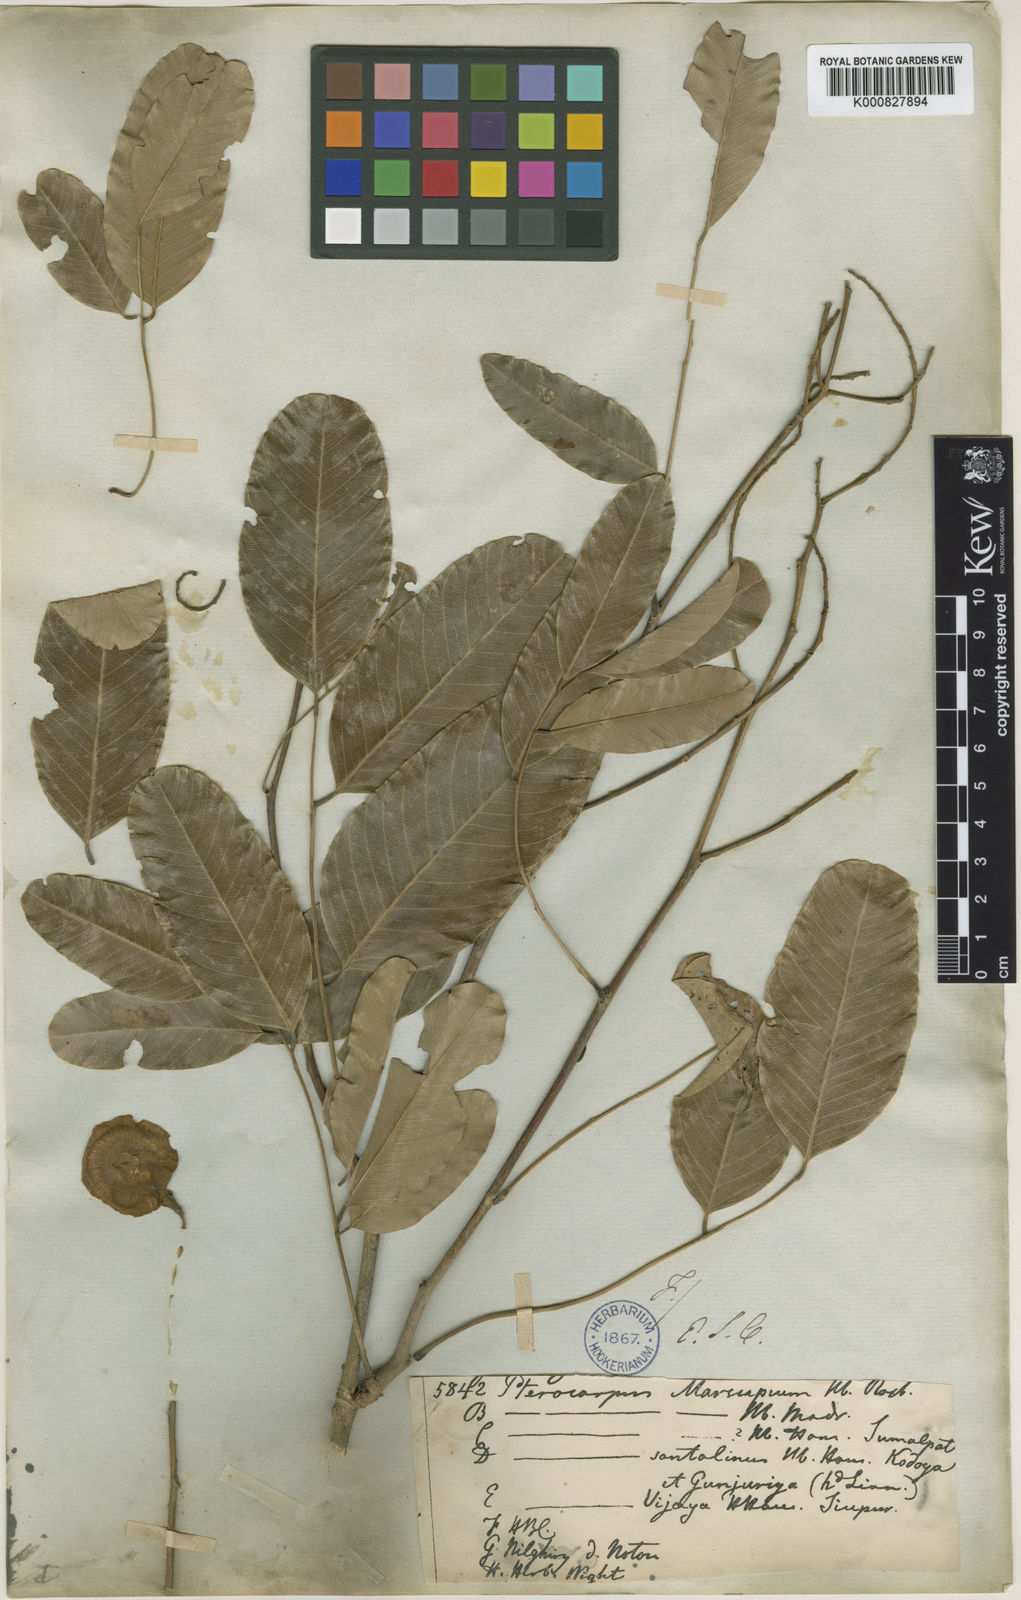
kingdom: Plantae
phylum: Tracheophyta
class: Magnoliopsida
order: Fabales
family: Fabaceae
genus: Pterocarpus
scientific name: Pterocarpus marsupium
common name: East indian/malabar kino
